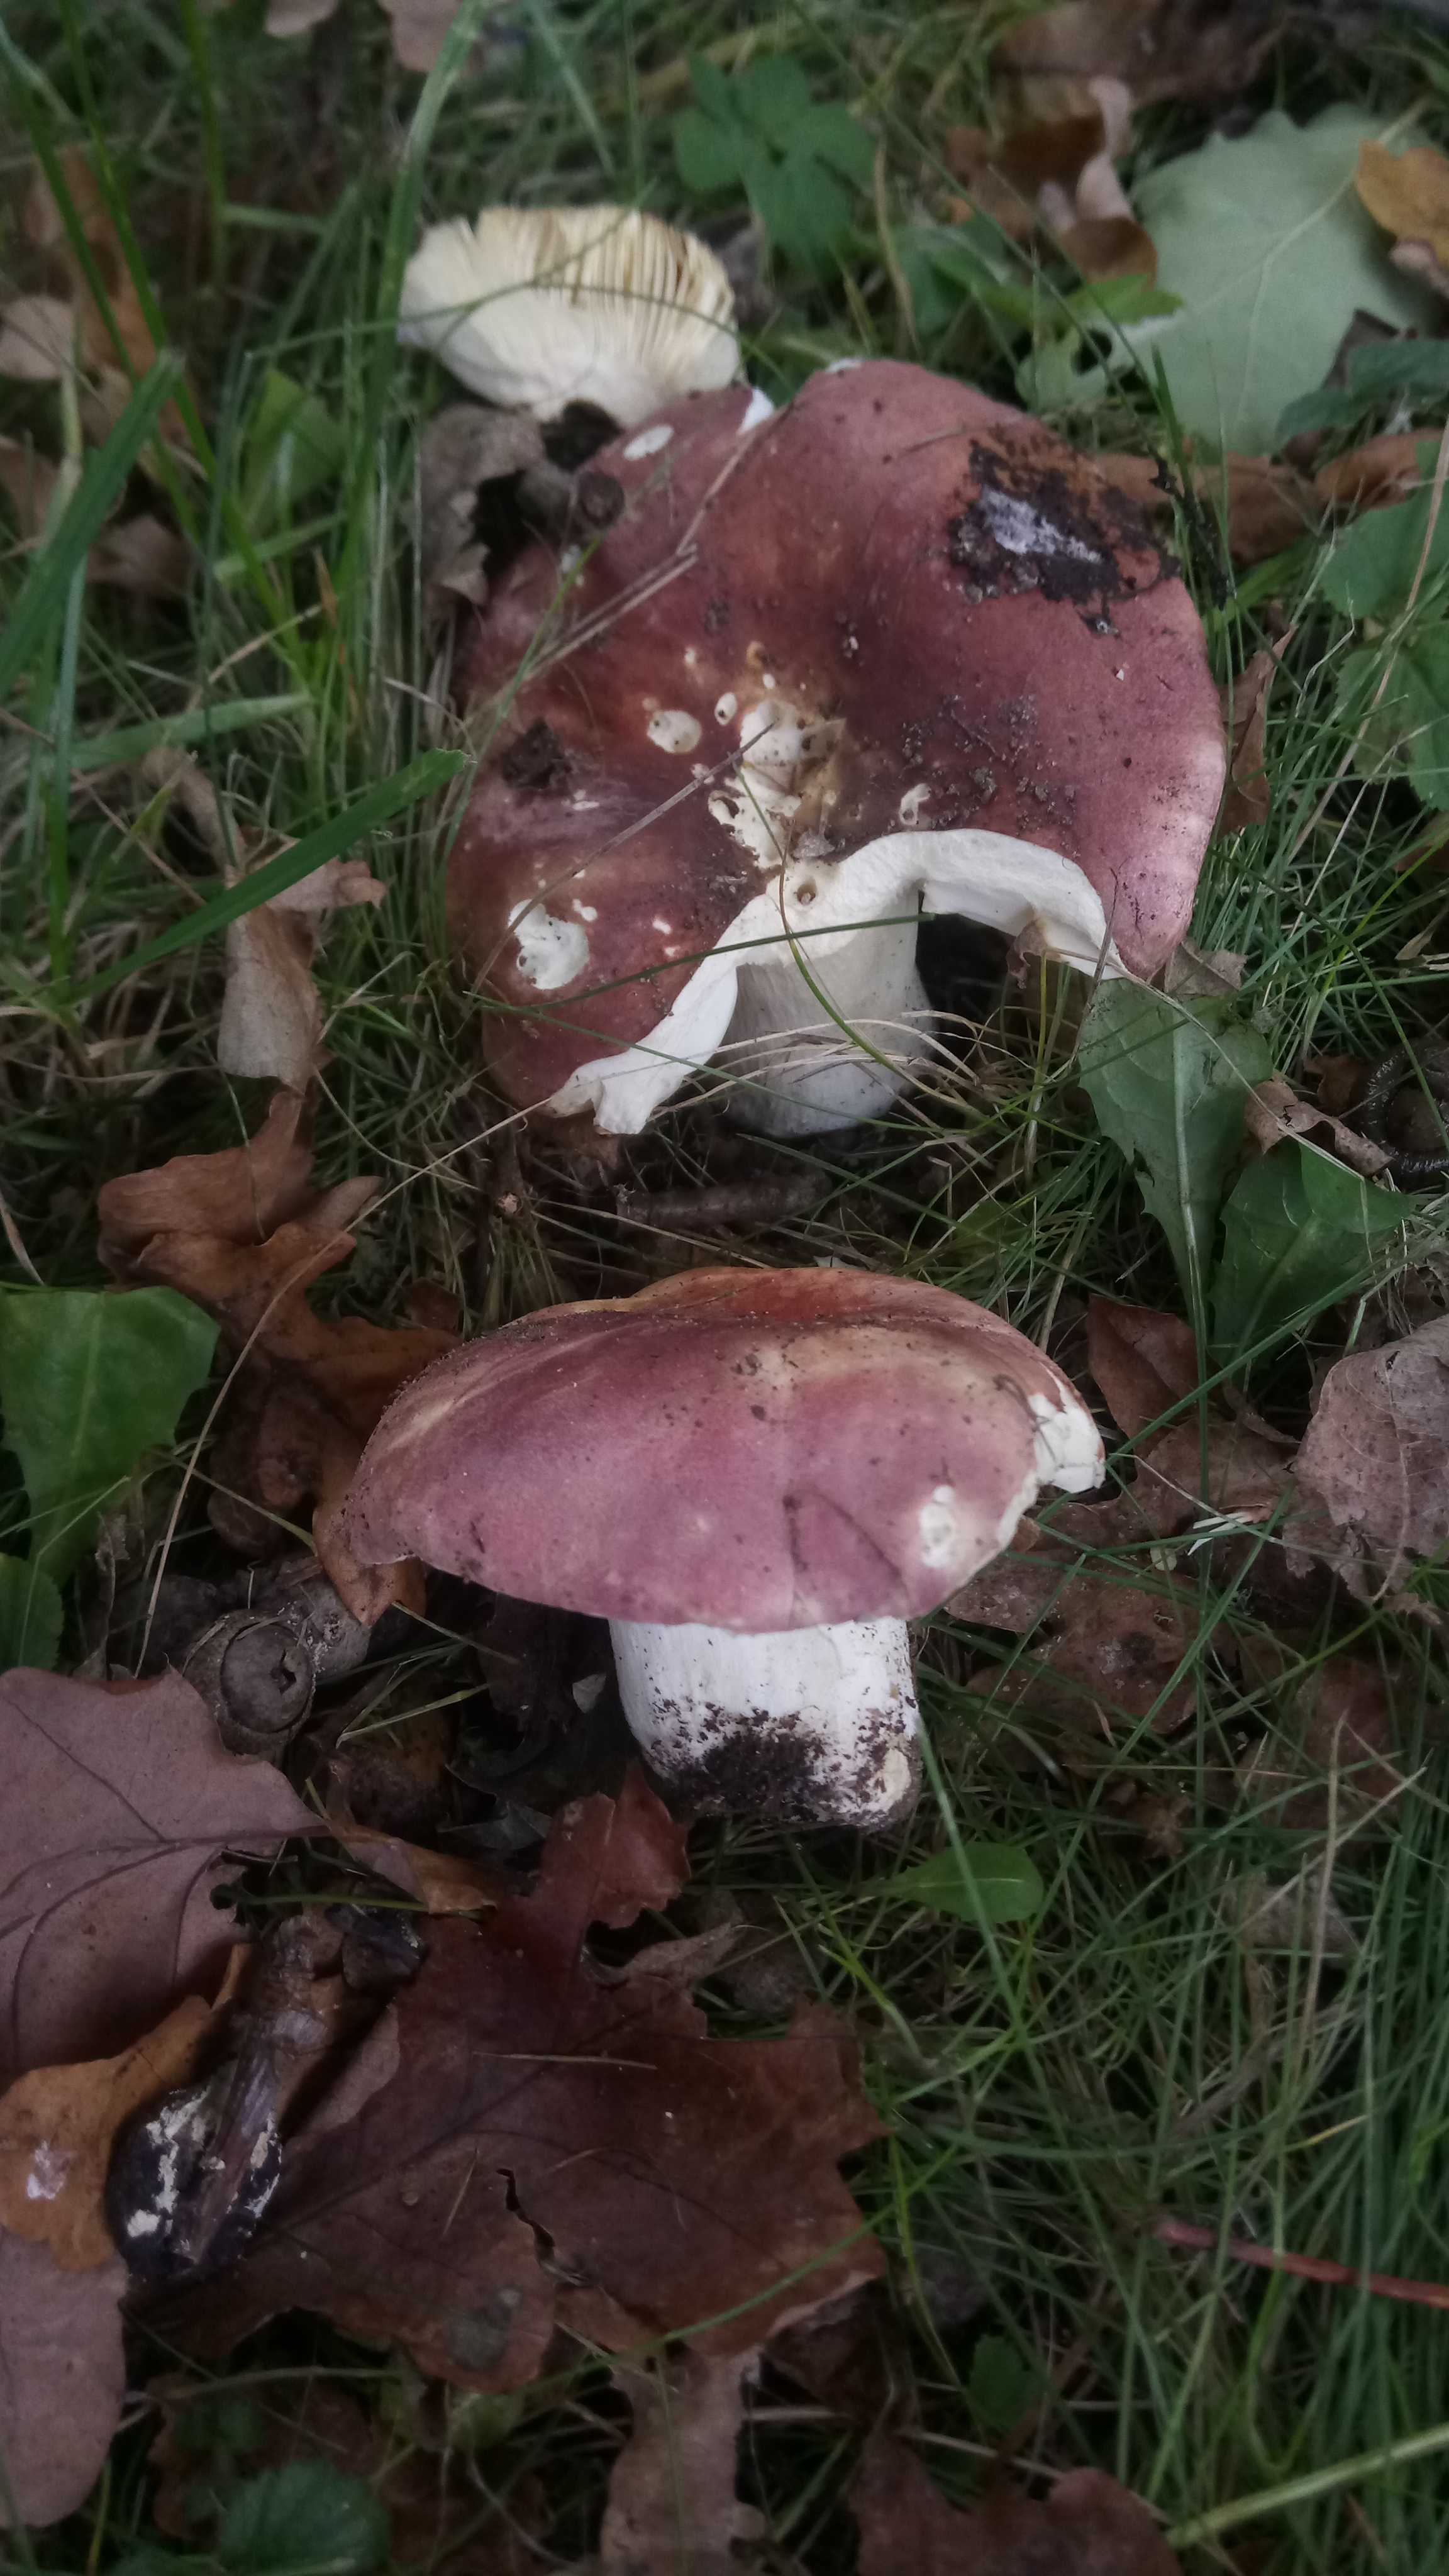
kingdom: Fungi
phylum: Basidiomycota
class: Agaricomycetes
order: Russulales
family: Russulaceae
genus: Russula
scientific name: Russula graveolens
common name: bugtet skørhat
